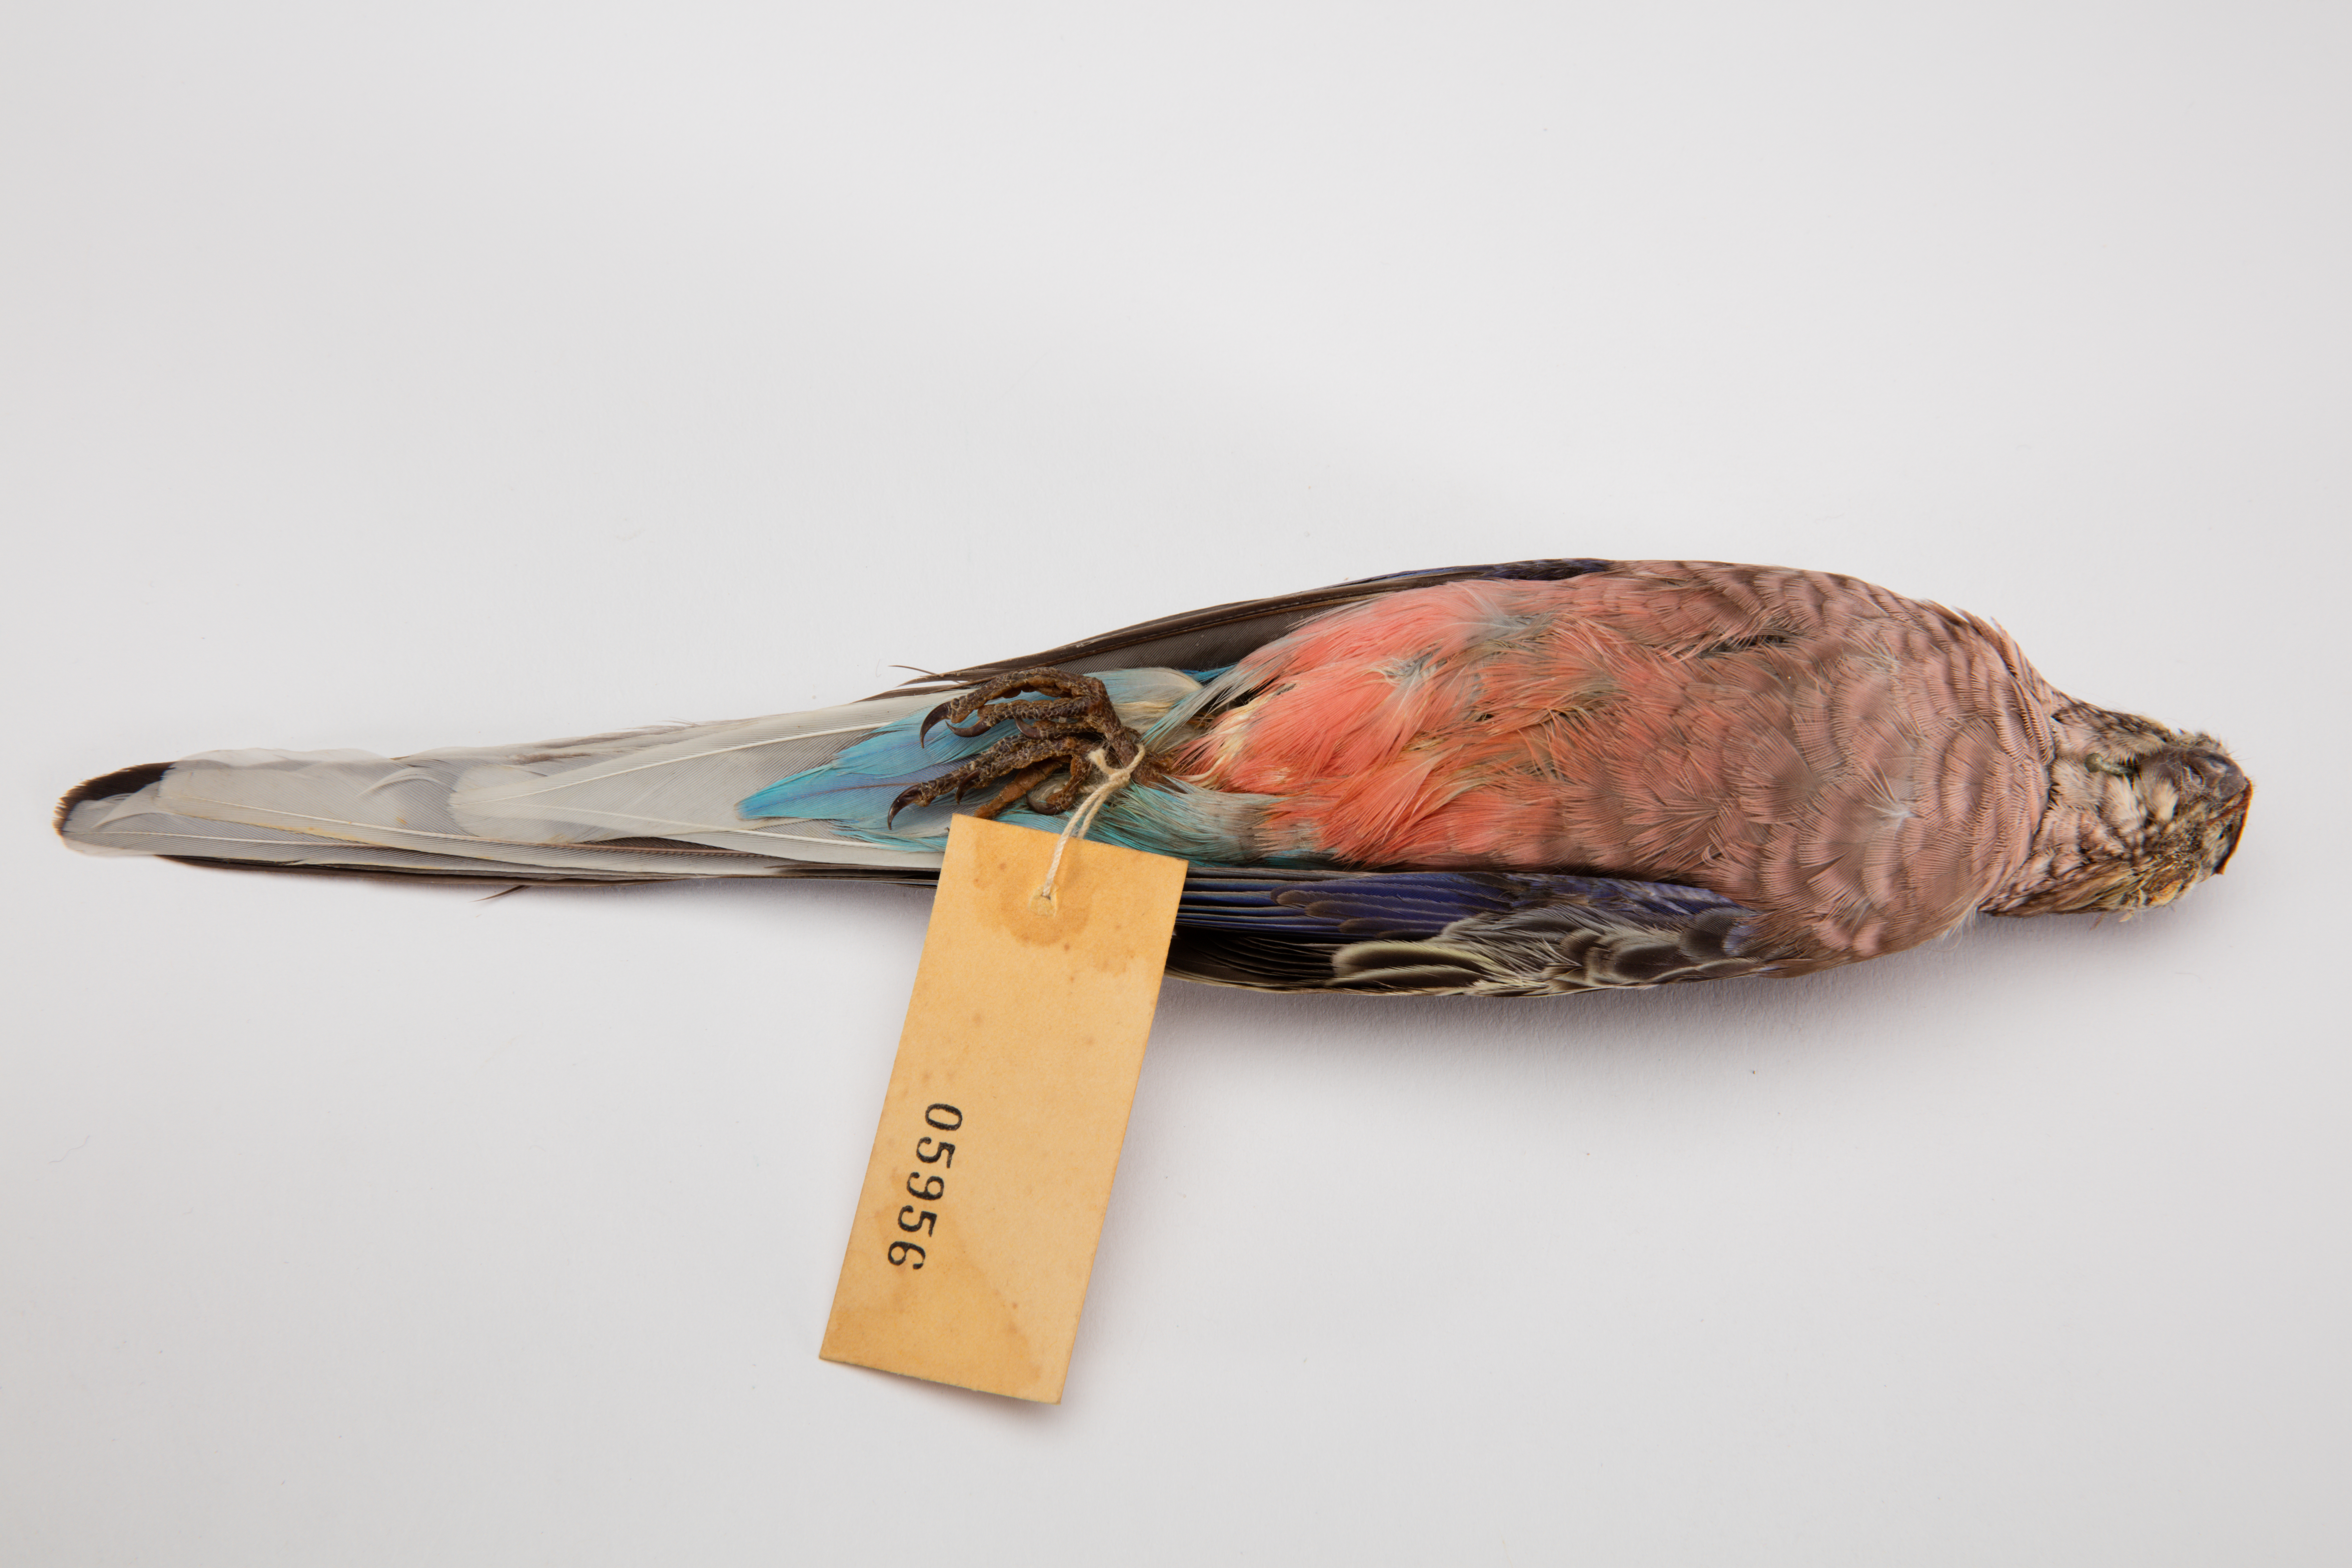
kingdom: Animalia
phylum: Chordata
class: Aves
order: Psittaciformes
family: Psittacidae
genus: Neopsephotus
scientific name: Neopsephotus bourkii
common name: Bourke's parrot
